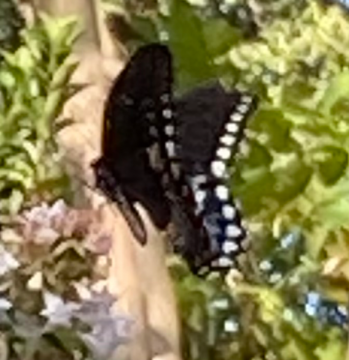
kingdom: Animalia
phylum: Arthropoda
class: Insecta
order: Lepidoptera
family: Papilionidae
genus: Pterourus
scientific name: Pterourus troilus
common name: Spicebush Swallowtail
